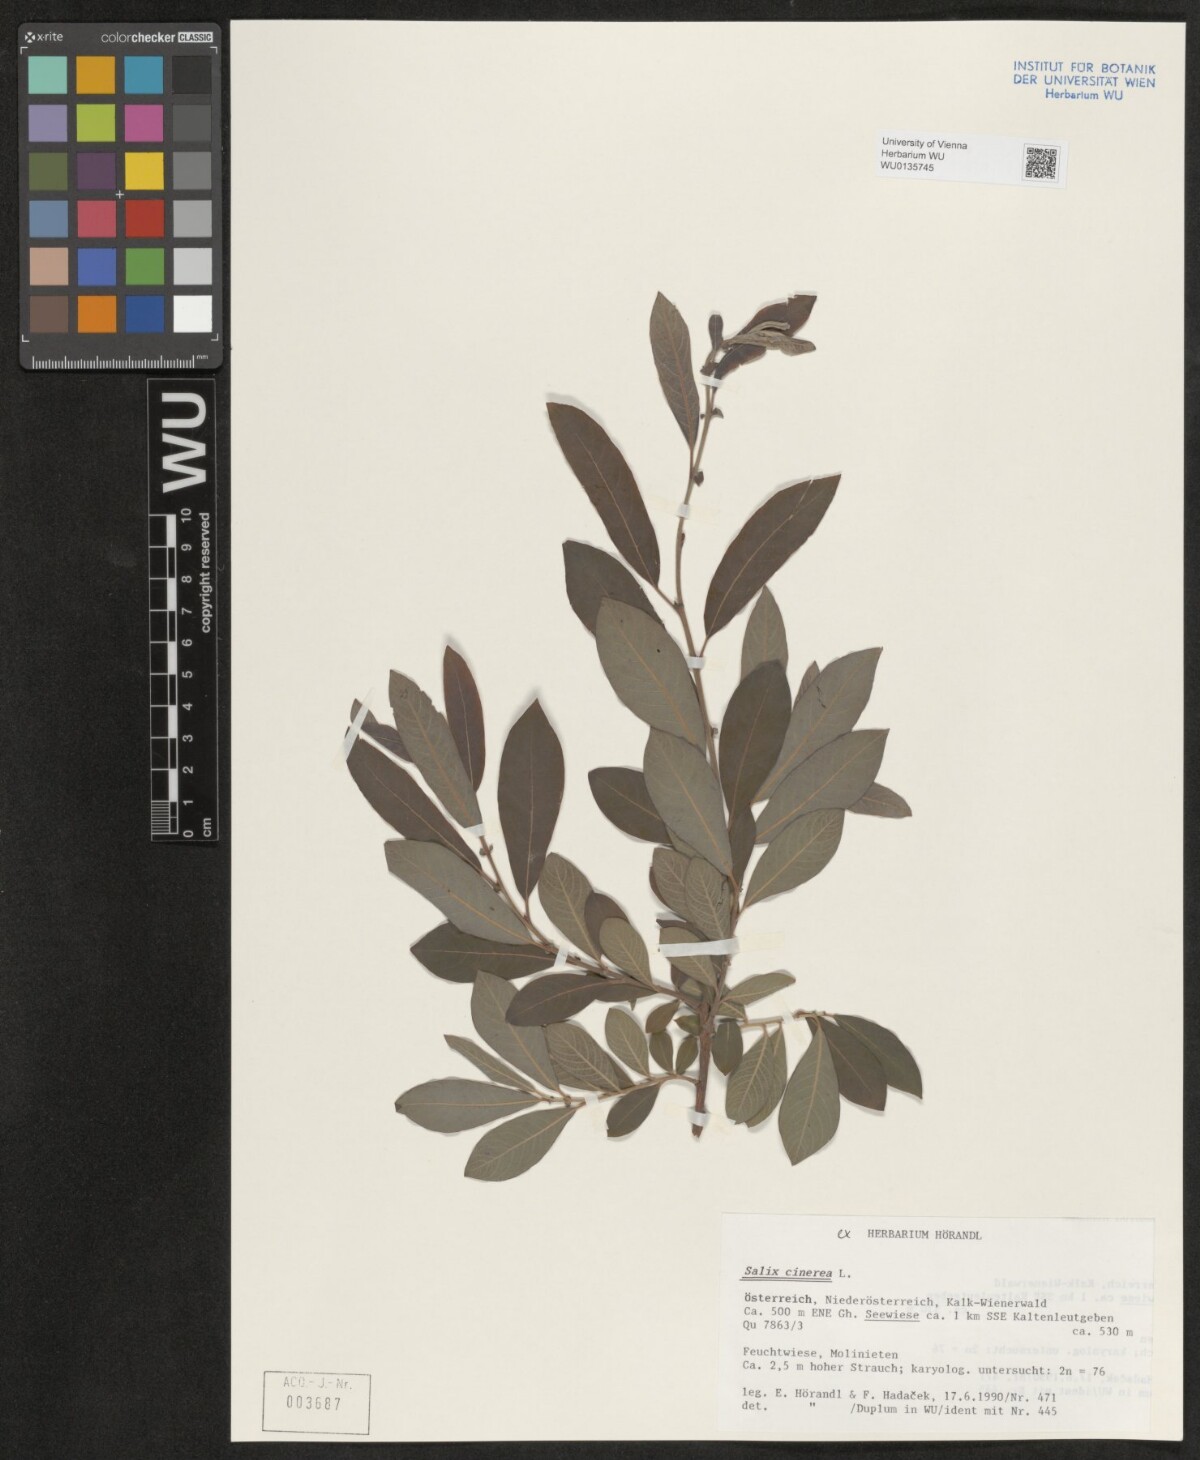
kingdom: Plantae
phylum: Tracheophyta
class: Magnoliopsida
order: Malpighiales
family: Salicaceae
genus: Salix
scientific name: Salix cinerea
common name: Common sallow
